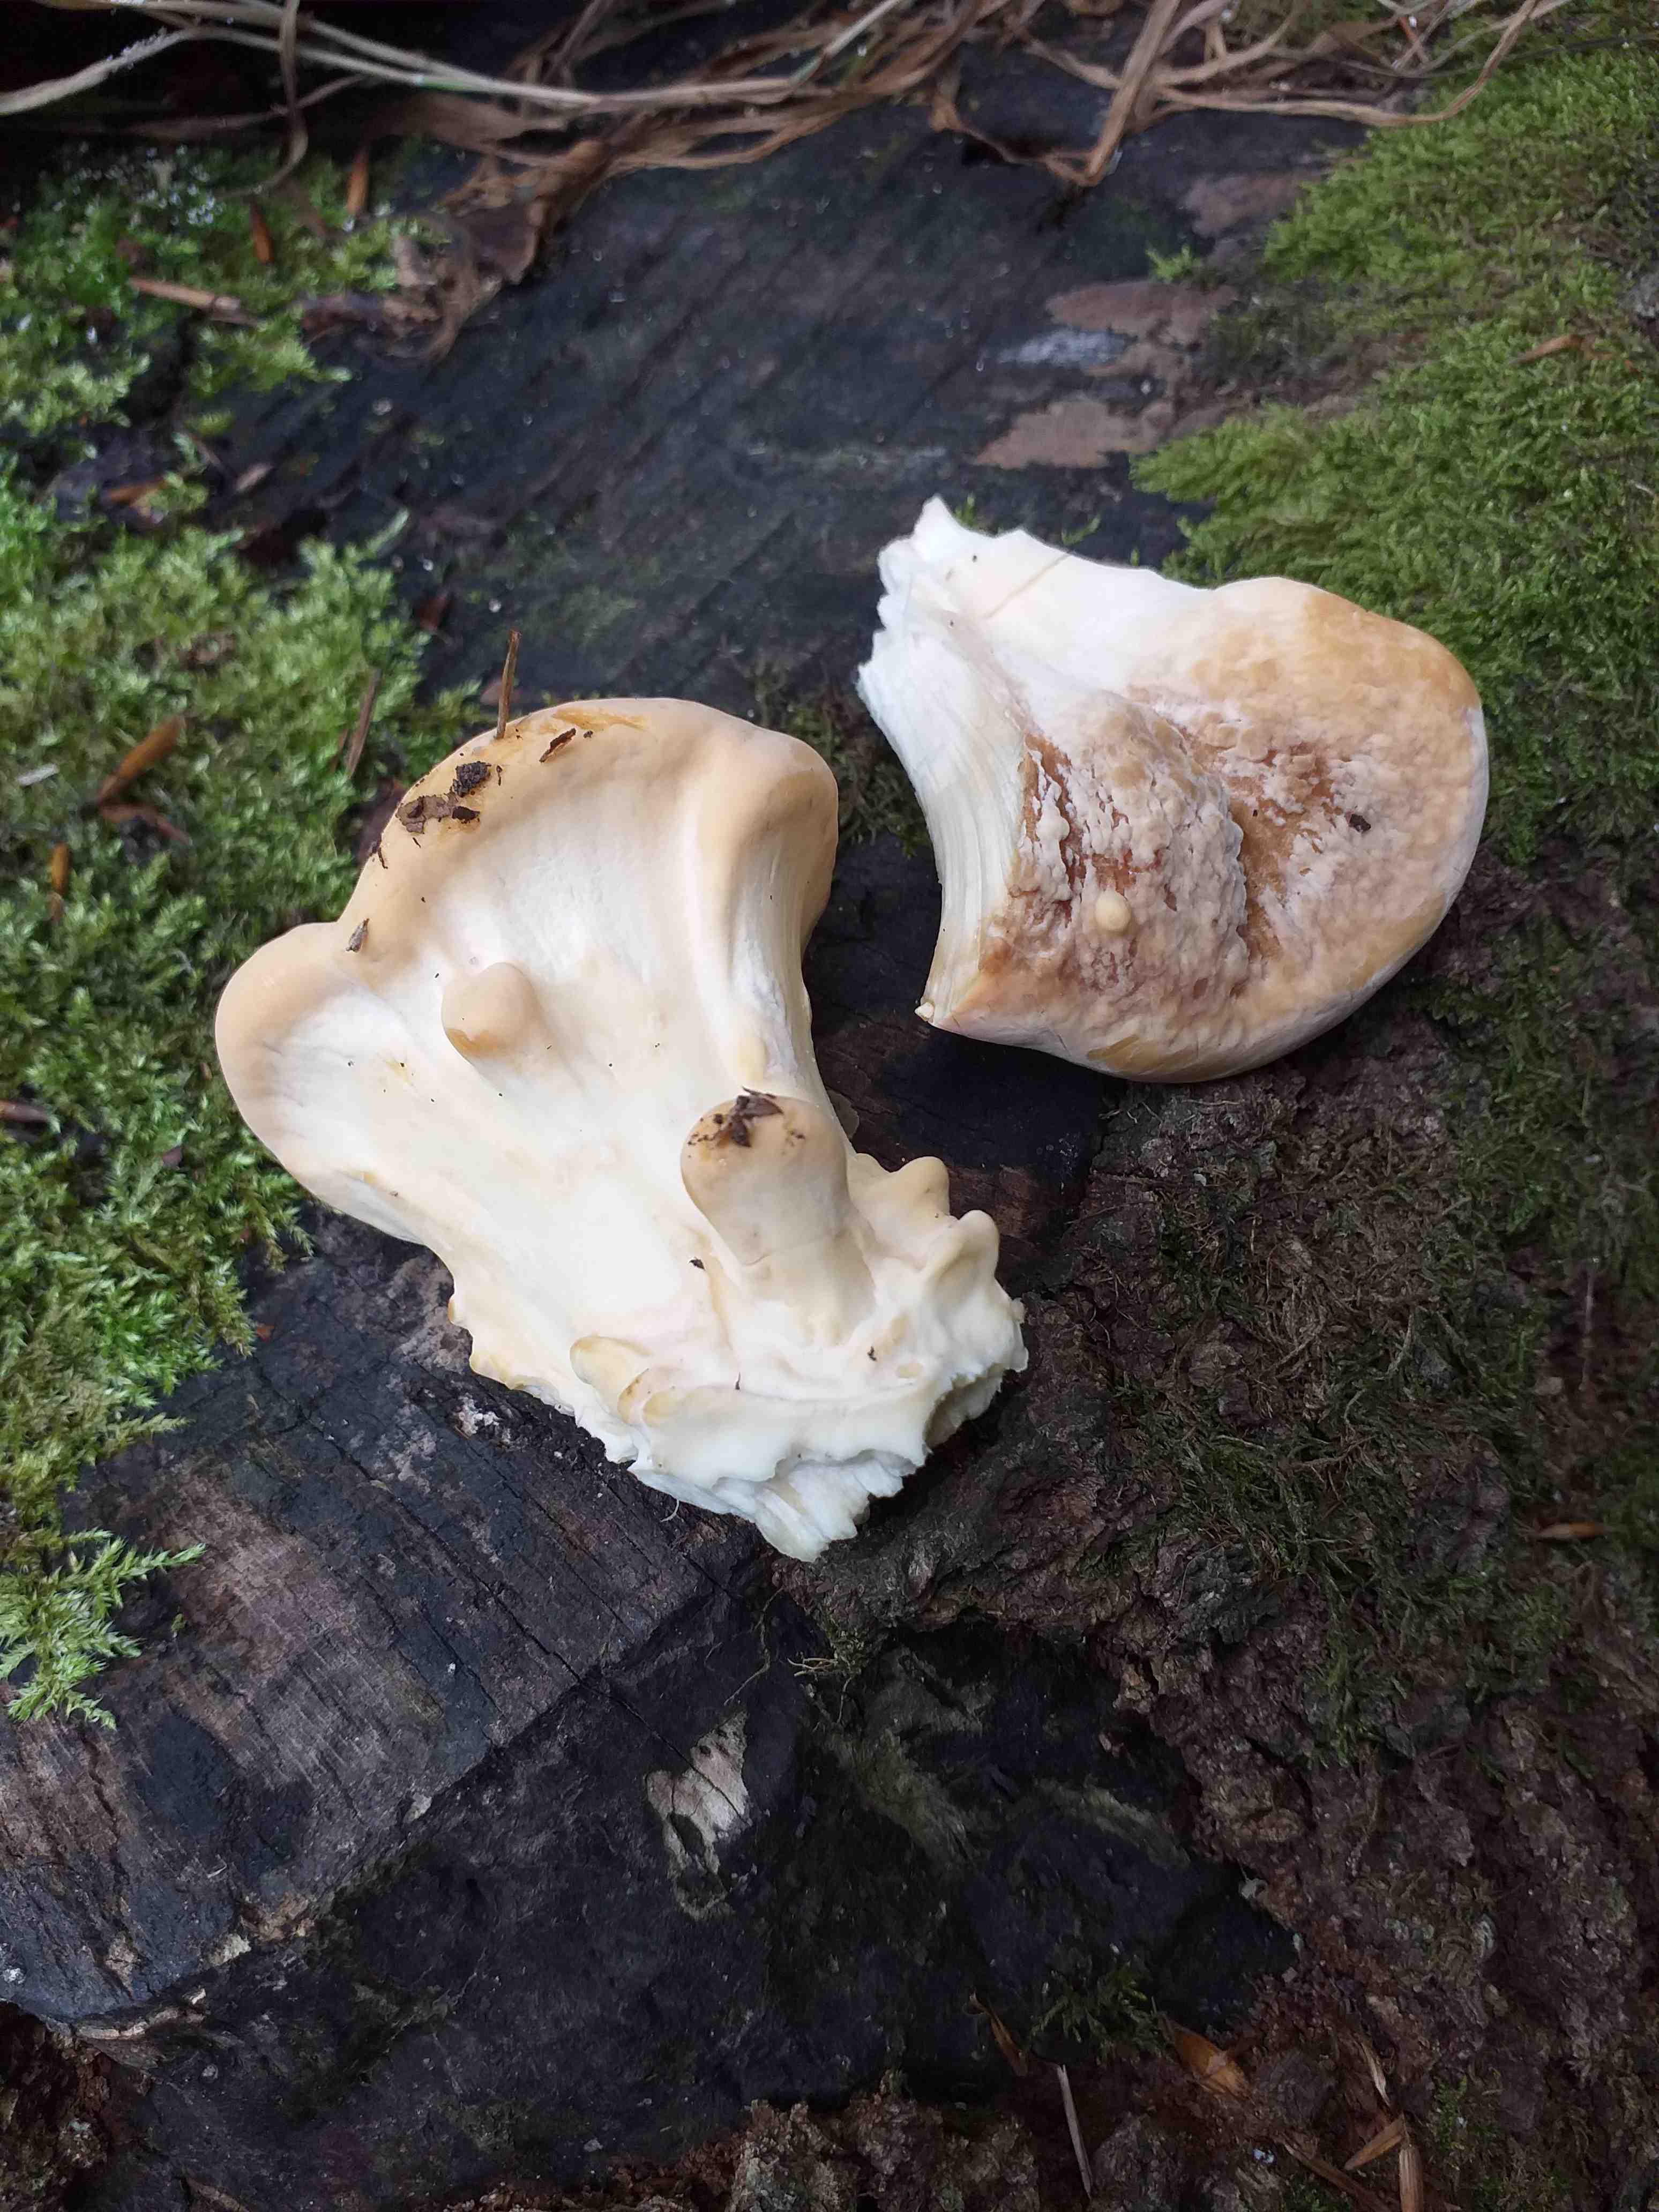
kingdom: Fungi
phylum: Basidiomycota
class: Agaricomycetes
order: Polyporales
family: Meripilaceae
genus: Meripilus
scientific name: Meripilus giganteus
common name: kæmpeporesvamp
